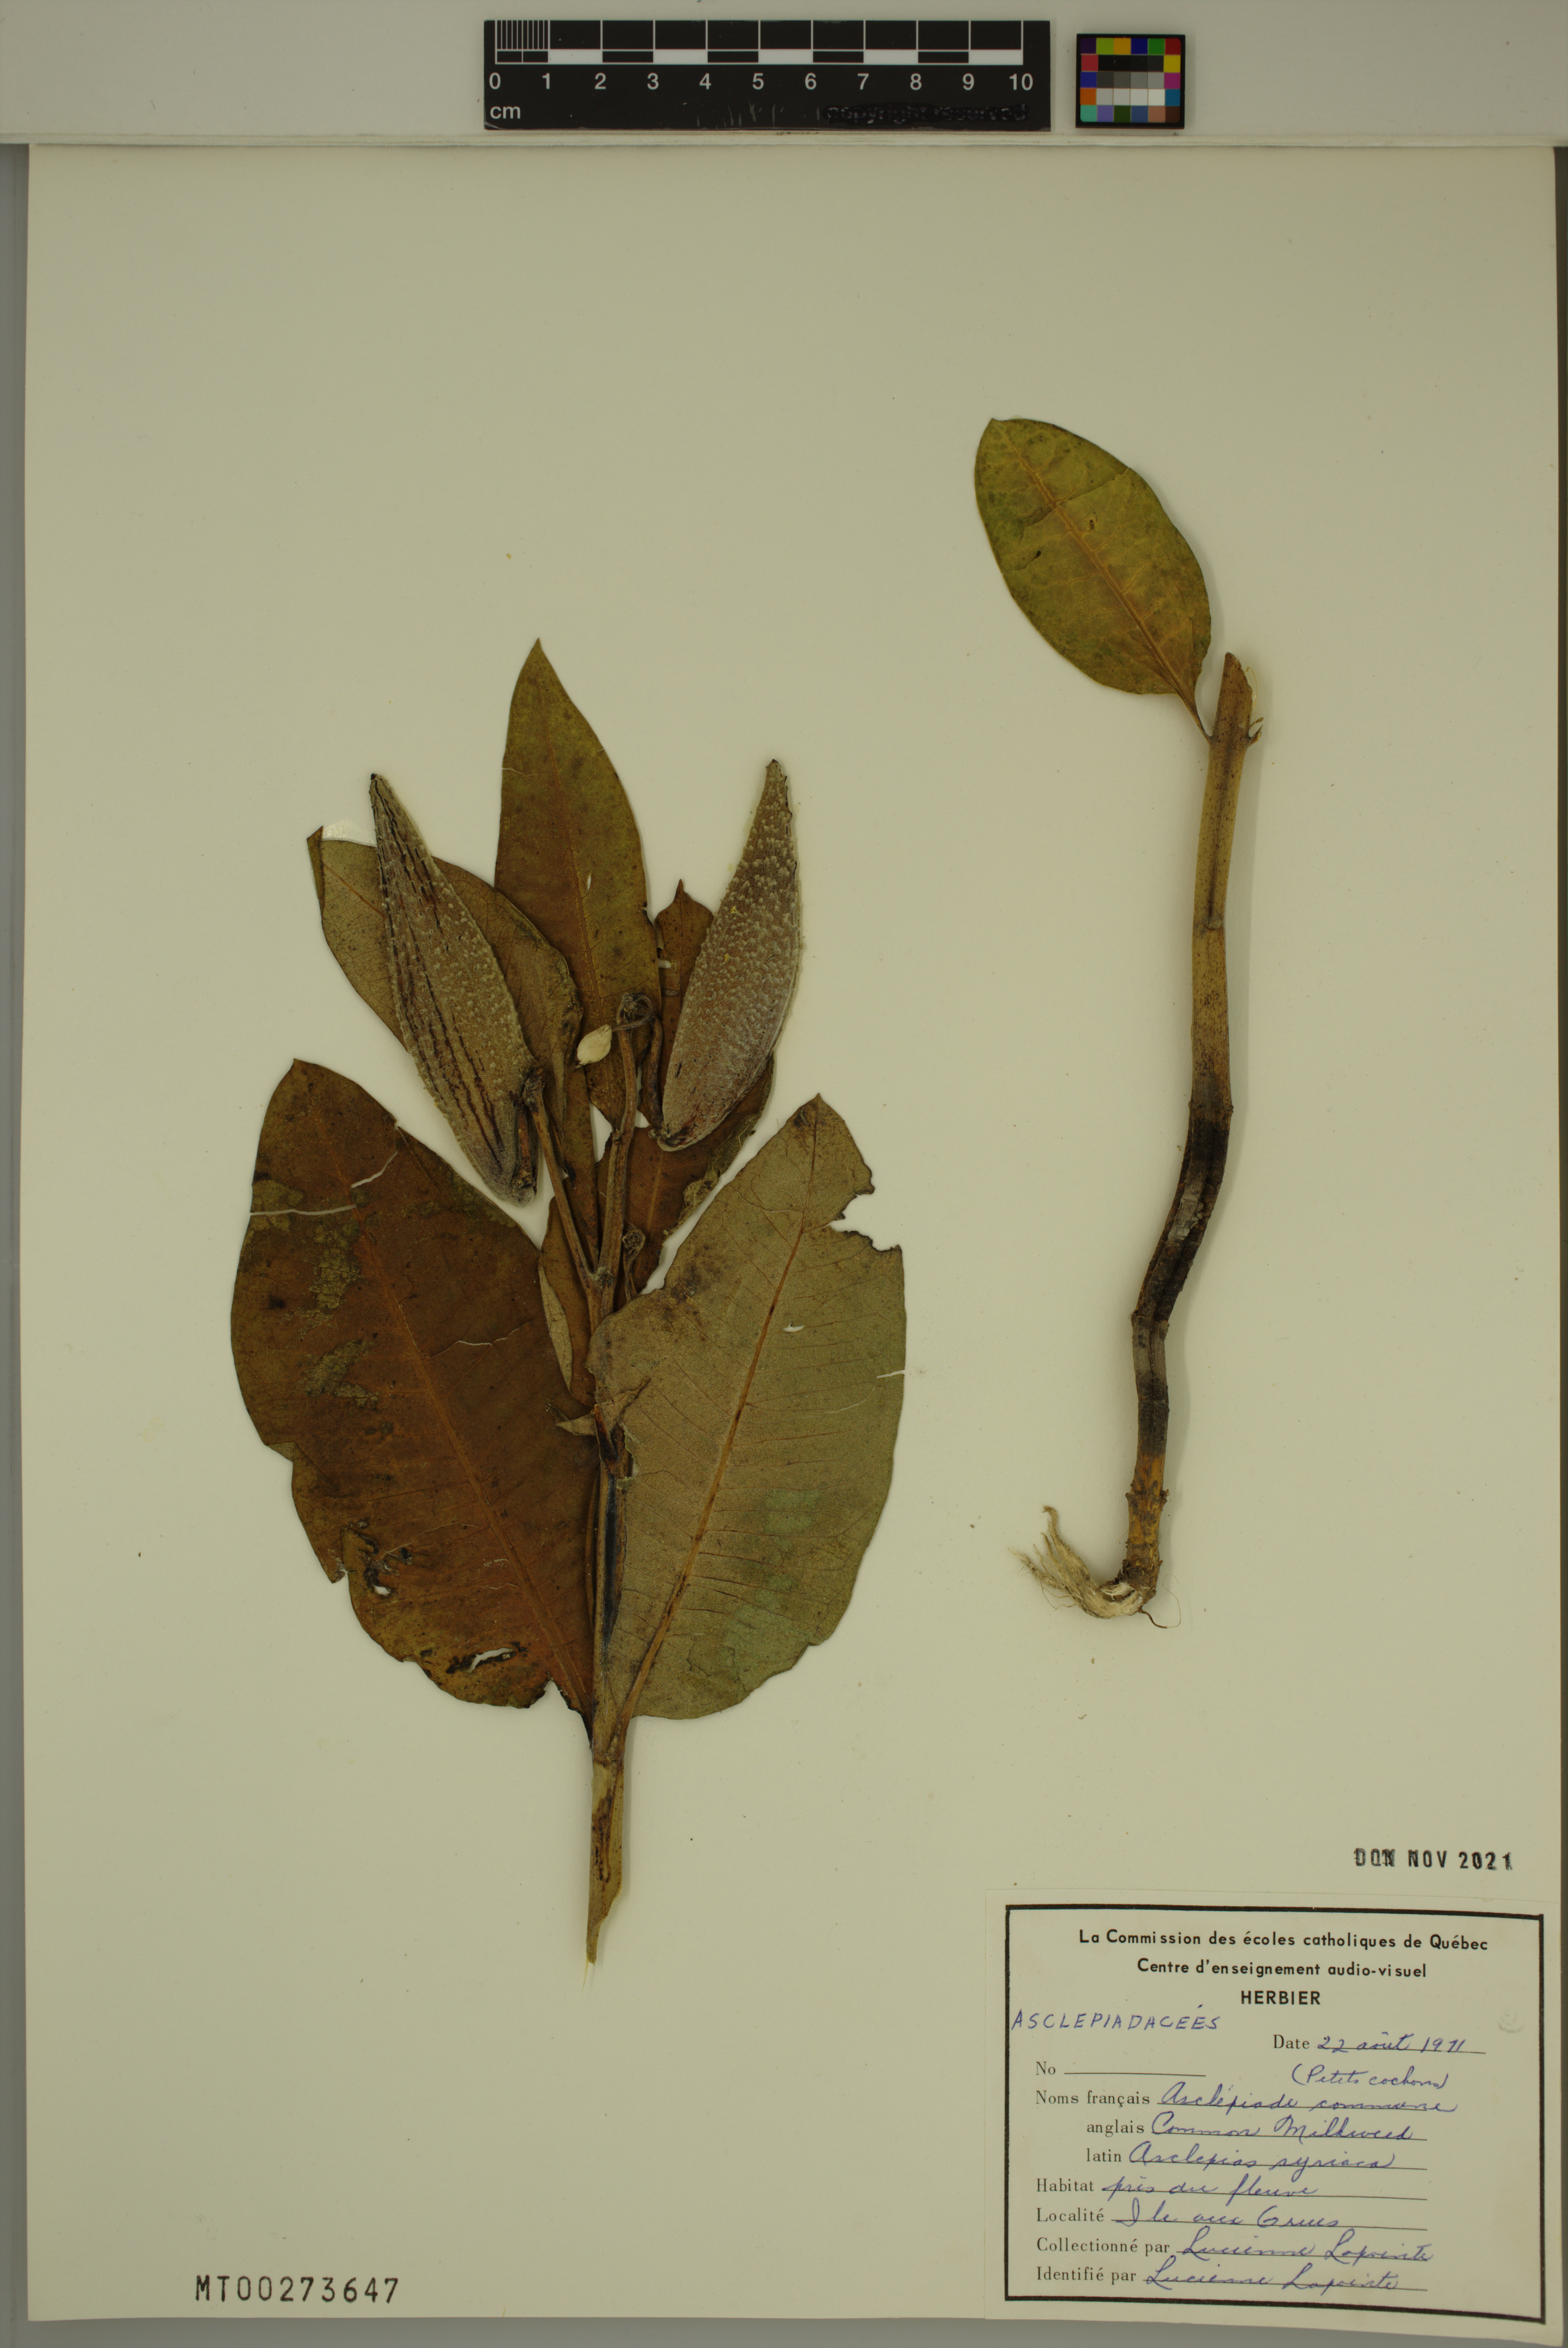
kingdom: Plantae
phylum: Tracheophyta
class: Magnoliopsida
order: Gentianales
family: Apocynaceae
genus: Asclepias
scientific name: Asclepias syriaca
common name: Common milkweed
